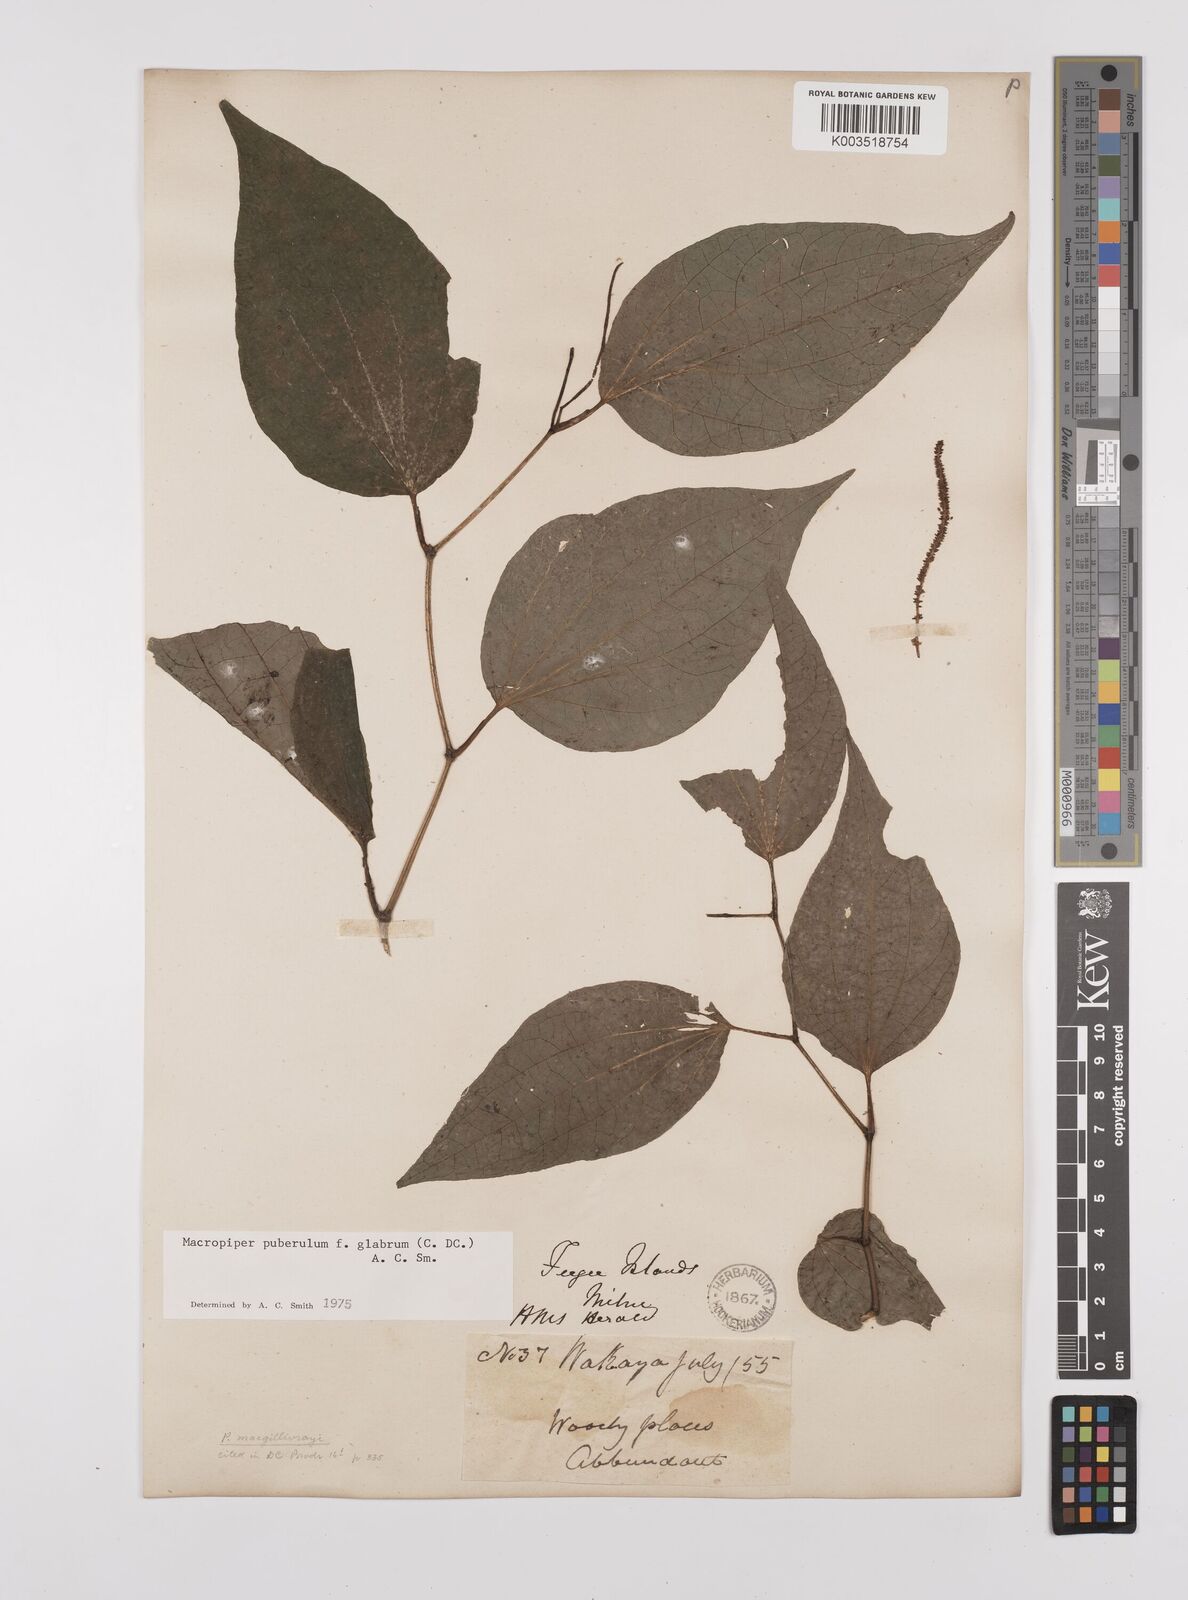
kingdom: Plantae
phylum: Tracheophyta
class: Magnoliopsida
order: Piperales
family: Piperaceae
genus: Macropiper
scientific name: Macropiper puberulum
